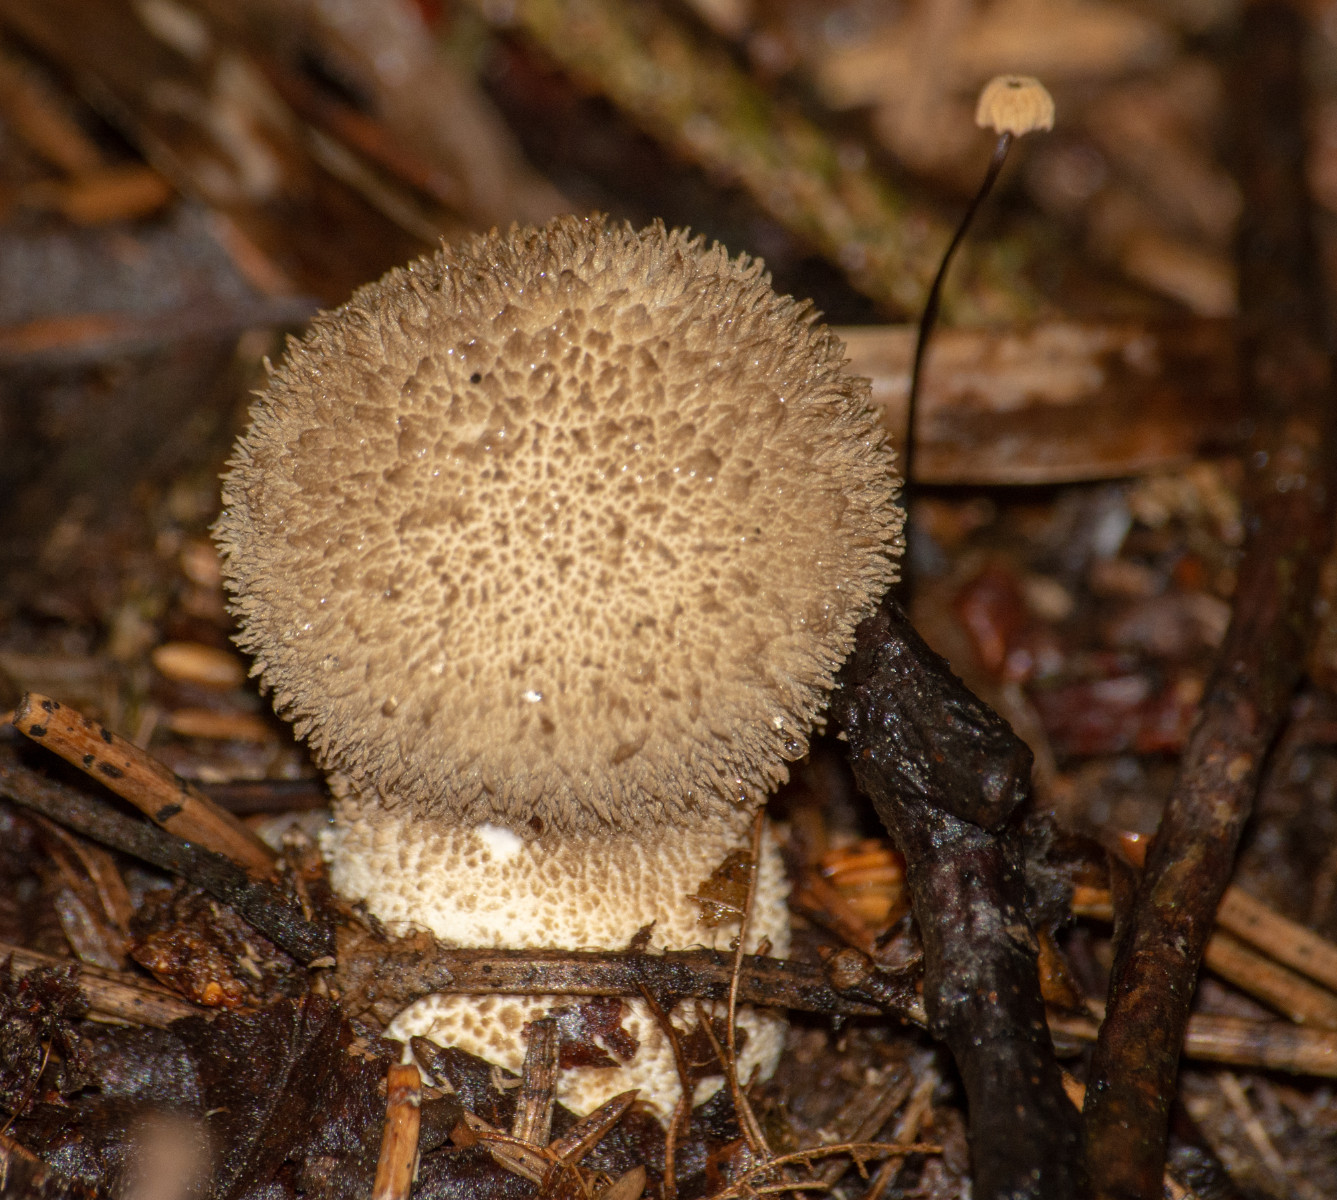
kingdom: Fungi
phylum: Basidiomycota
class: Agaricomycetes
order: Agaricales
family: Agaricaceae
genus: Lycoperdon
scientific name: Lycoperdon
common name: støvbold
